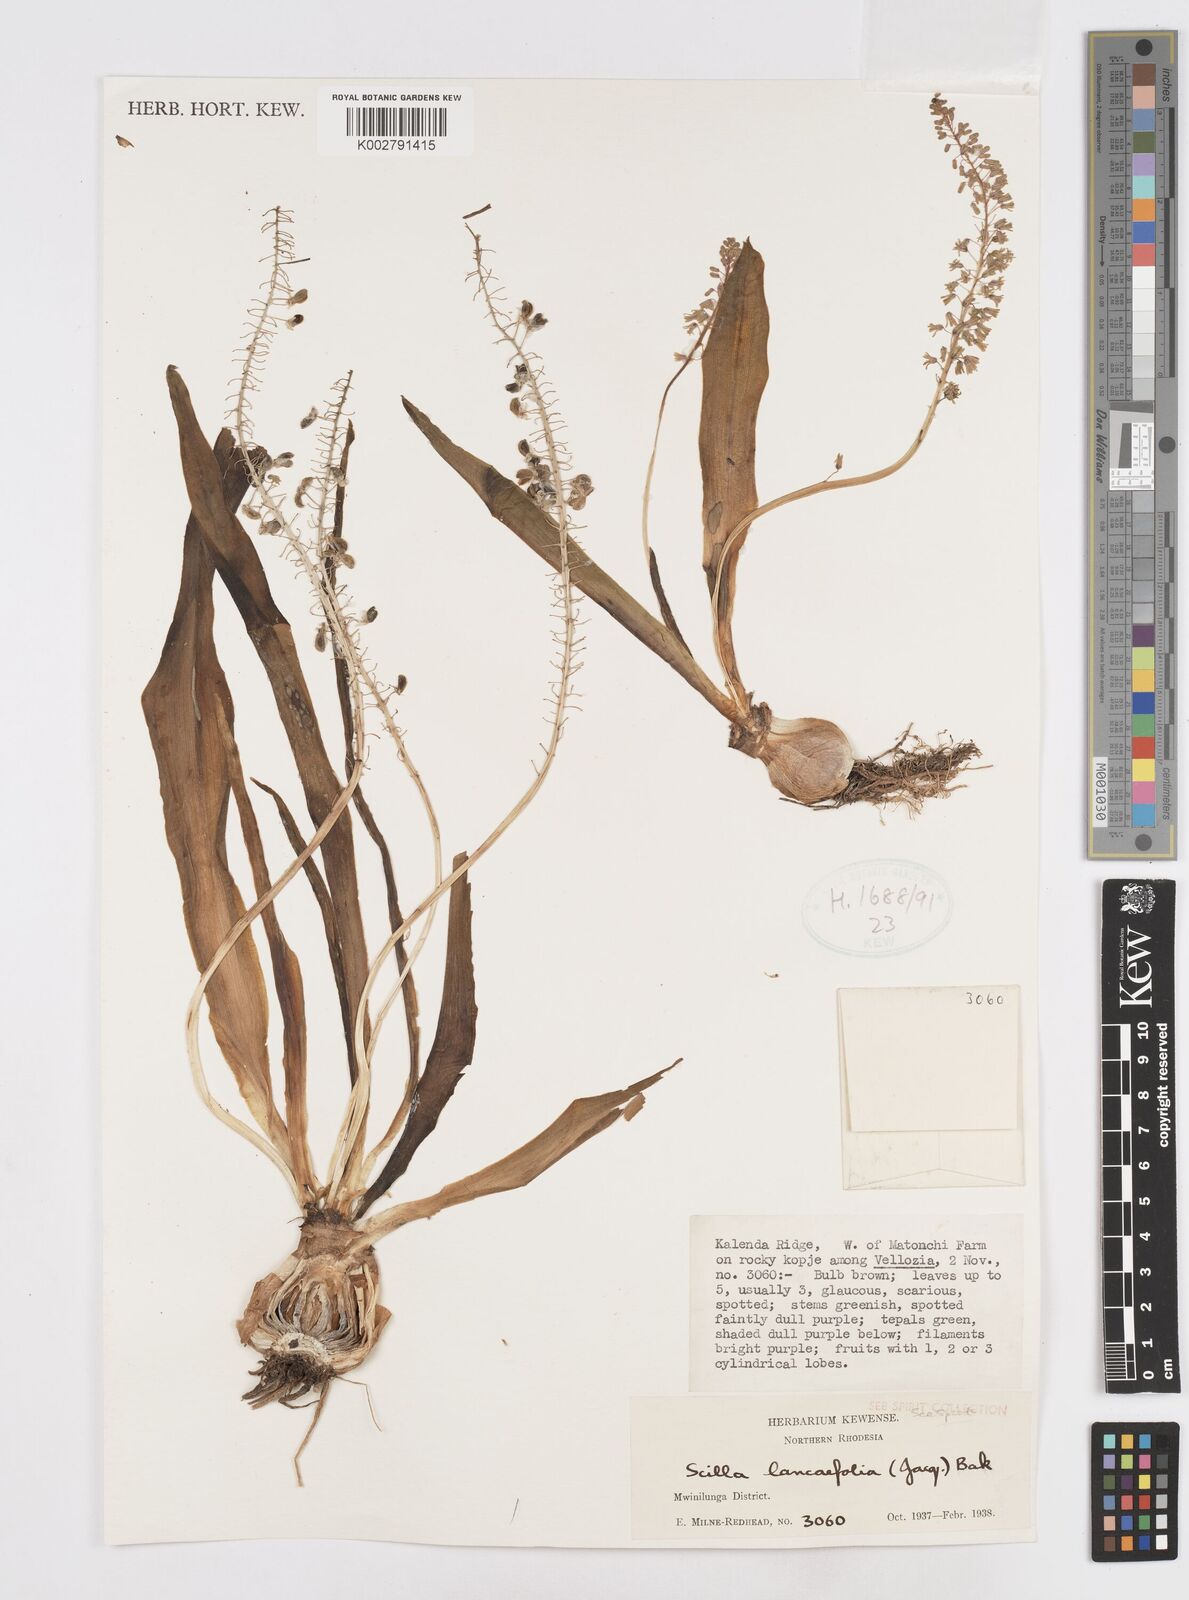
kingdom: Plantae
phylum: Tracheophyta
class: Liliopsida
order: Asparagales
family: Asparagaceae
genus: Ledebouria
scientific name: Ledebouria revoluta
